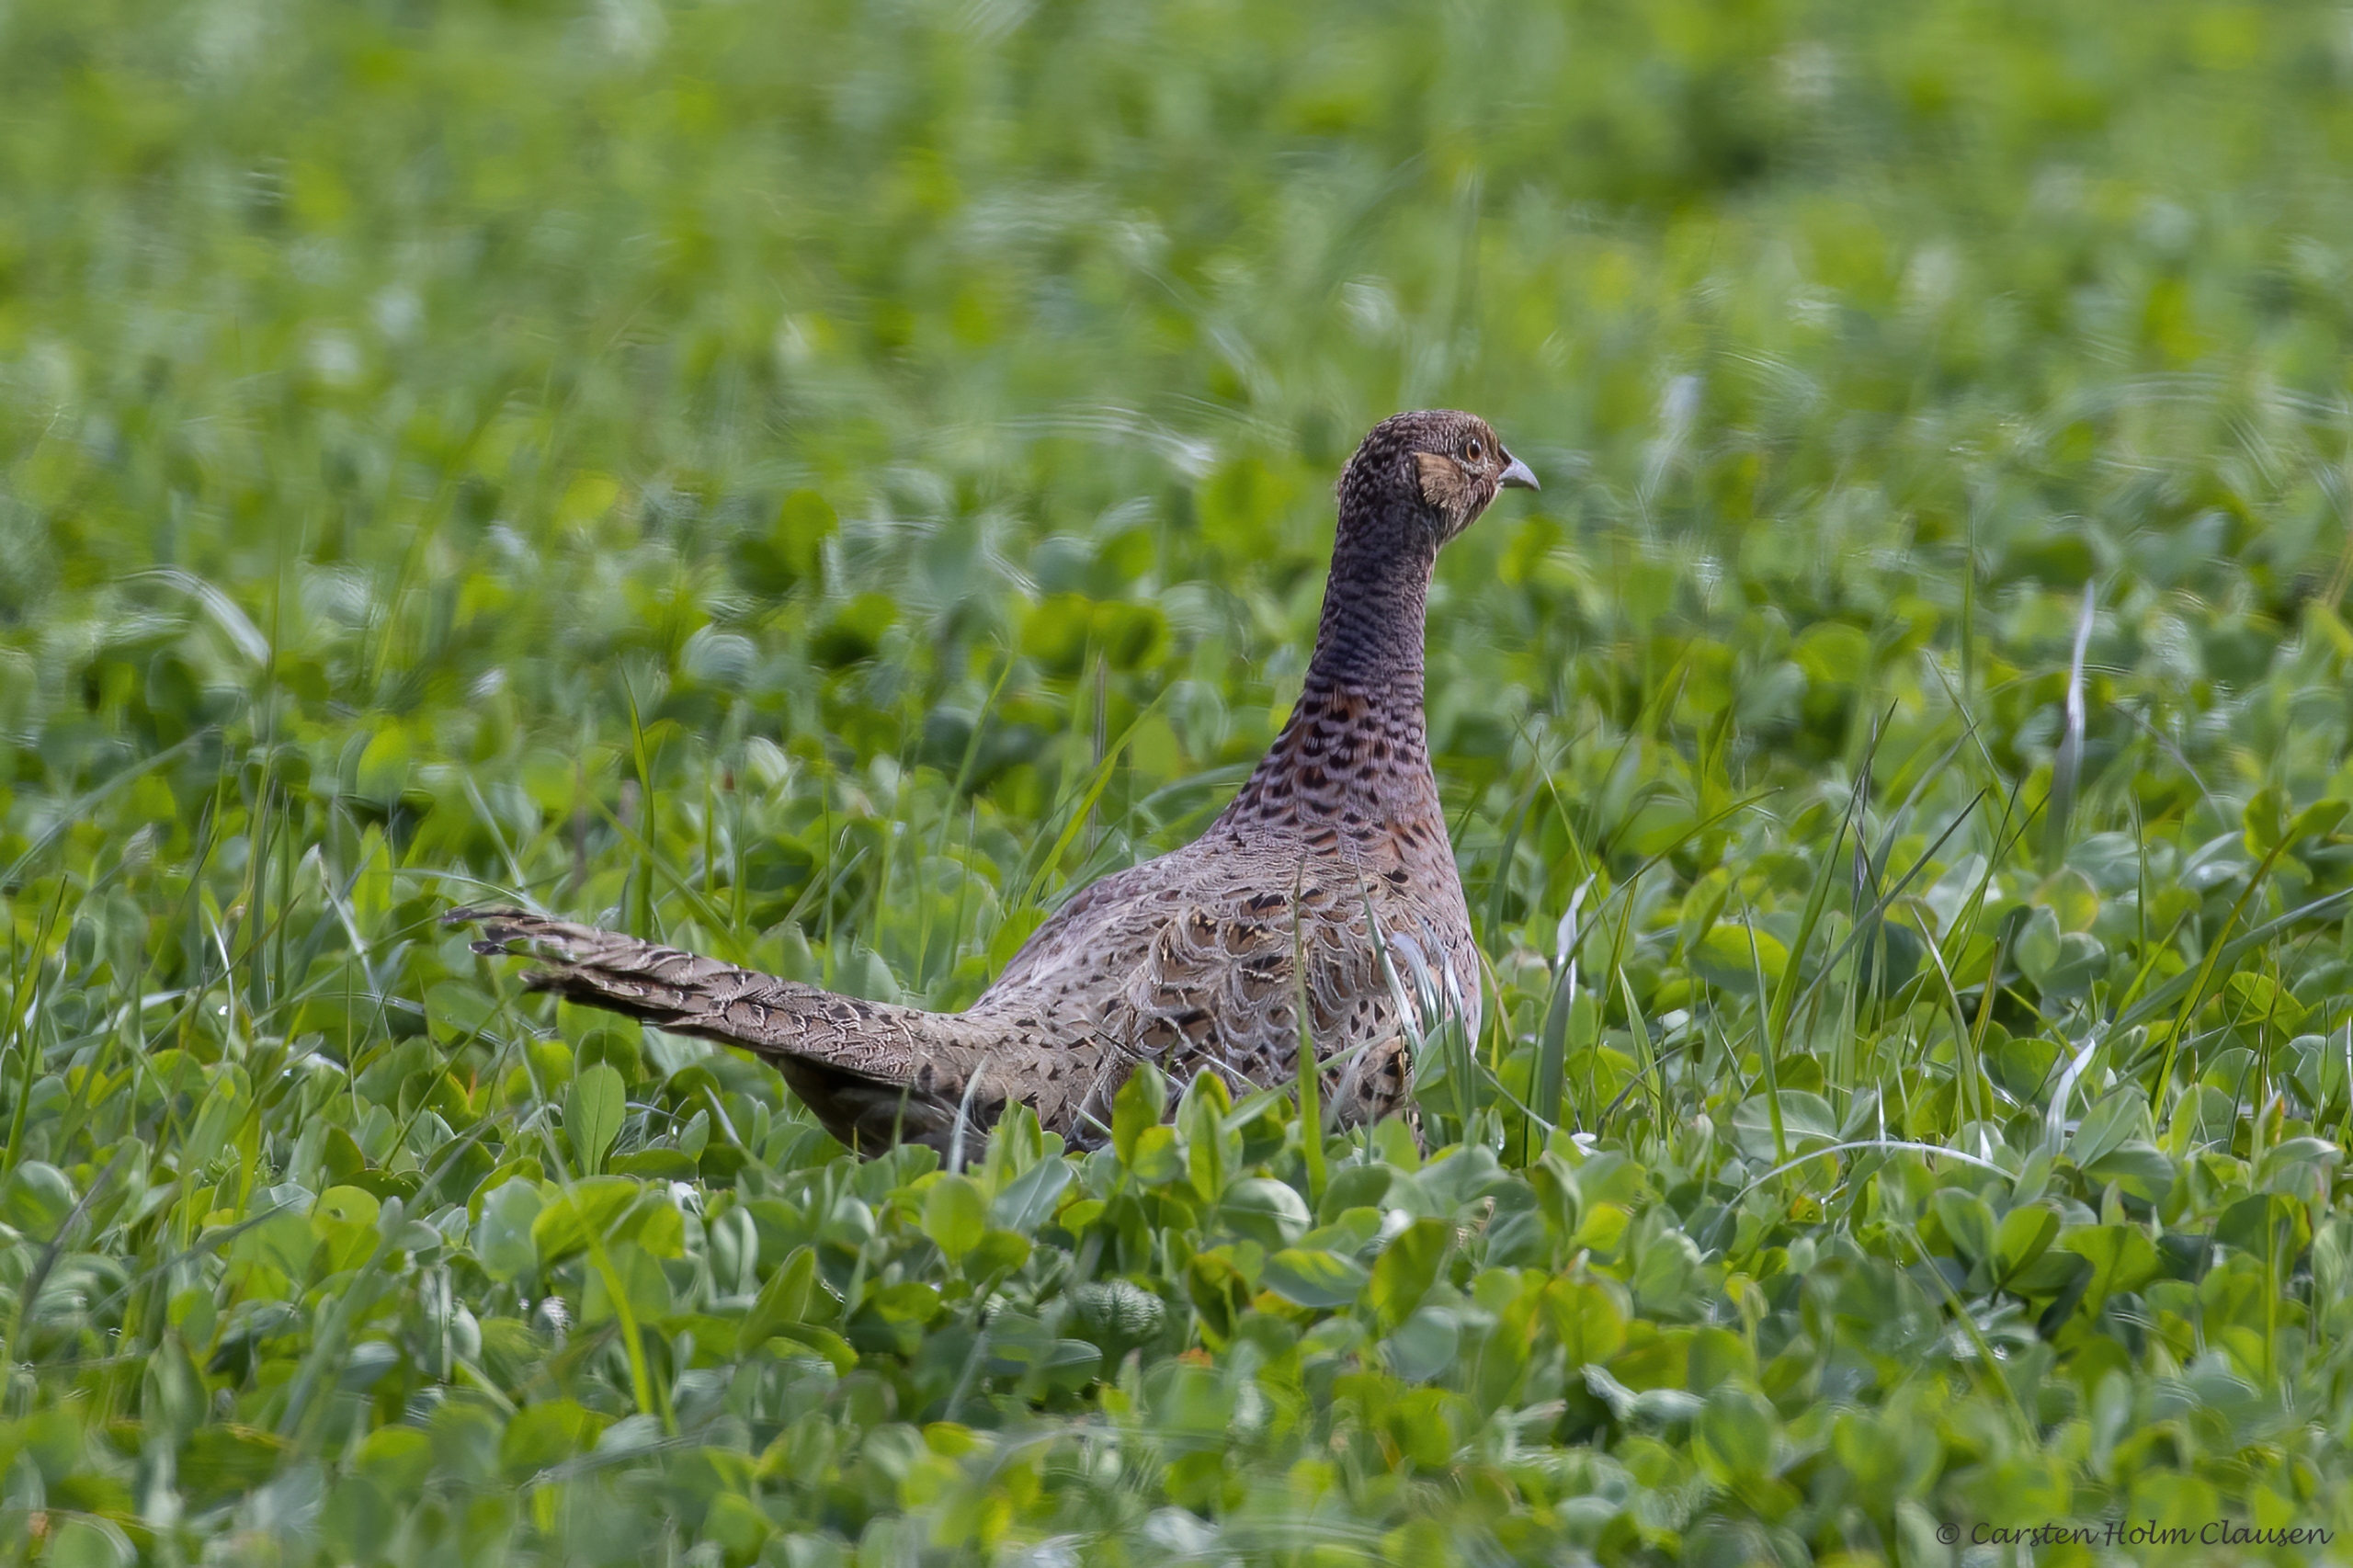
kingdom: Animalia
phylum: Chordata
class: Aves
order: Galliformes
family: Phasianidae
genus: Phasianus
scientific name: Phasianus colchicus
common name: Fasan
